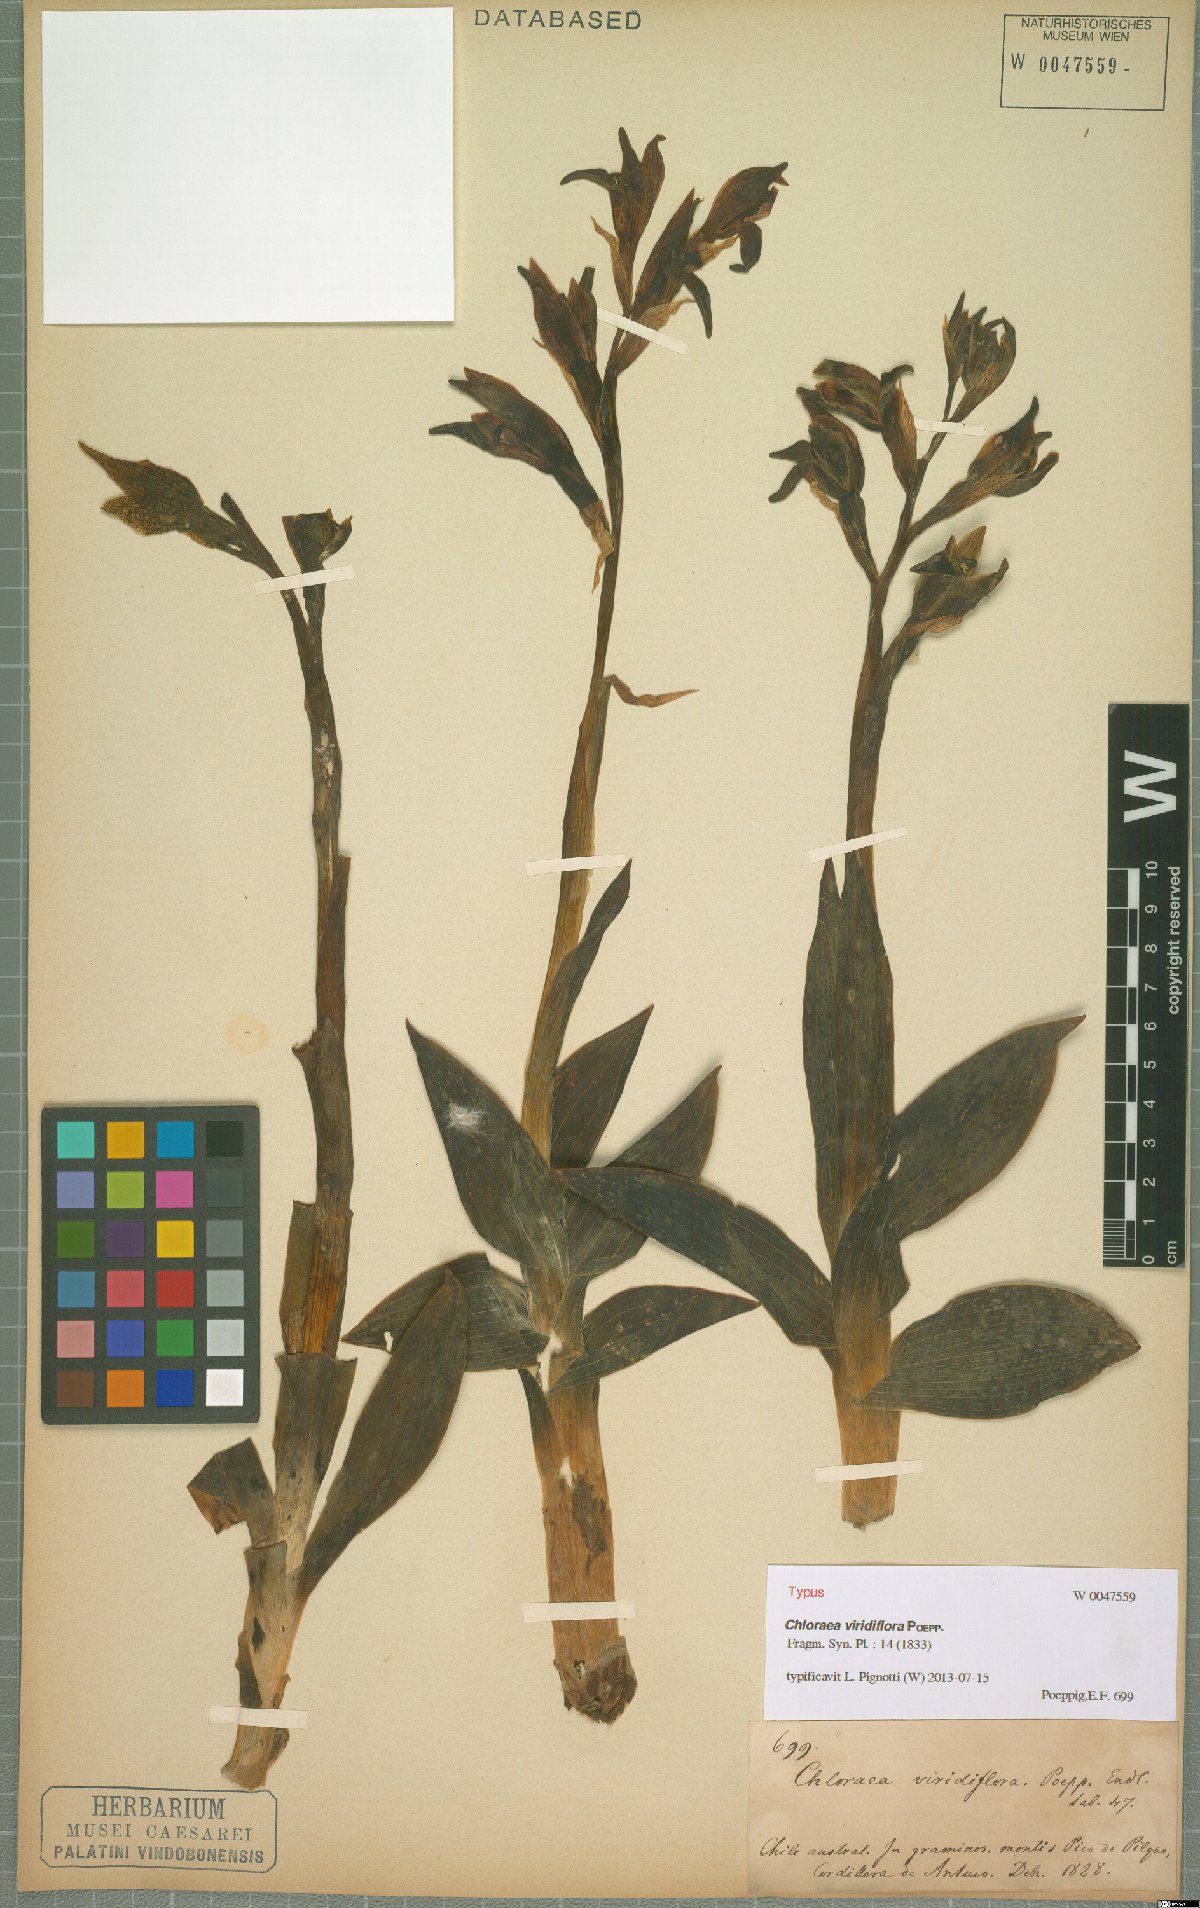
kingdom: Plantae
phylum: Tracheophyta
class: Liliopsida
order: Asparagales
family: Orchidaceae
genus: Chloraea
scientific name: Chloraea viridiflora
